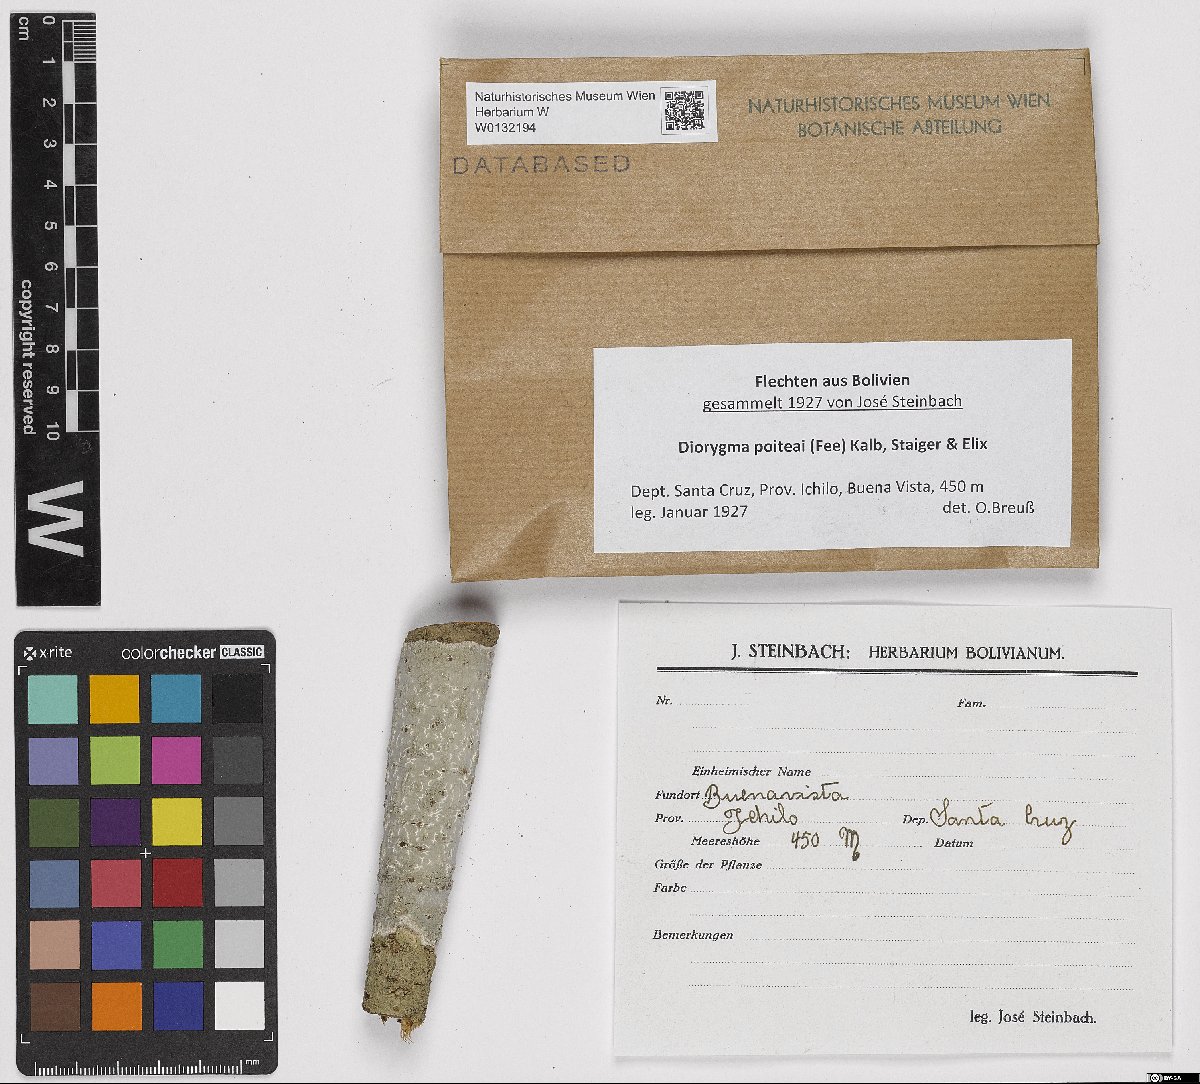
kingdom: Fungi
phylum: Ascomycota
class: Lecanoromycetes
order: Ostropales
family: Graphidaceae
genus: Diorygma
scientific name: Diorygma poitaei
